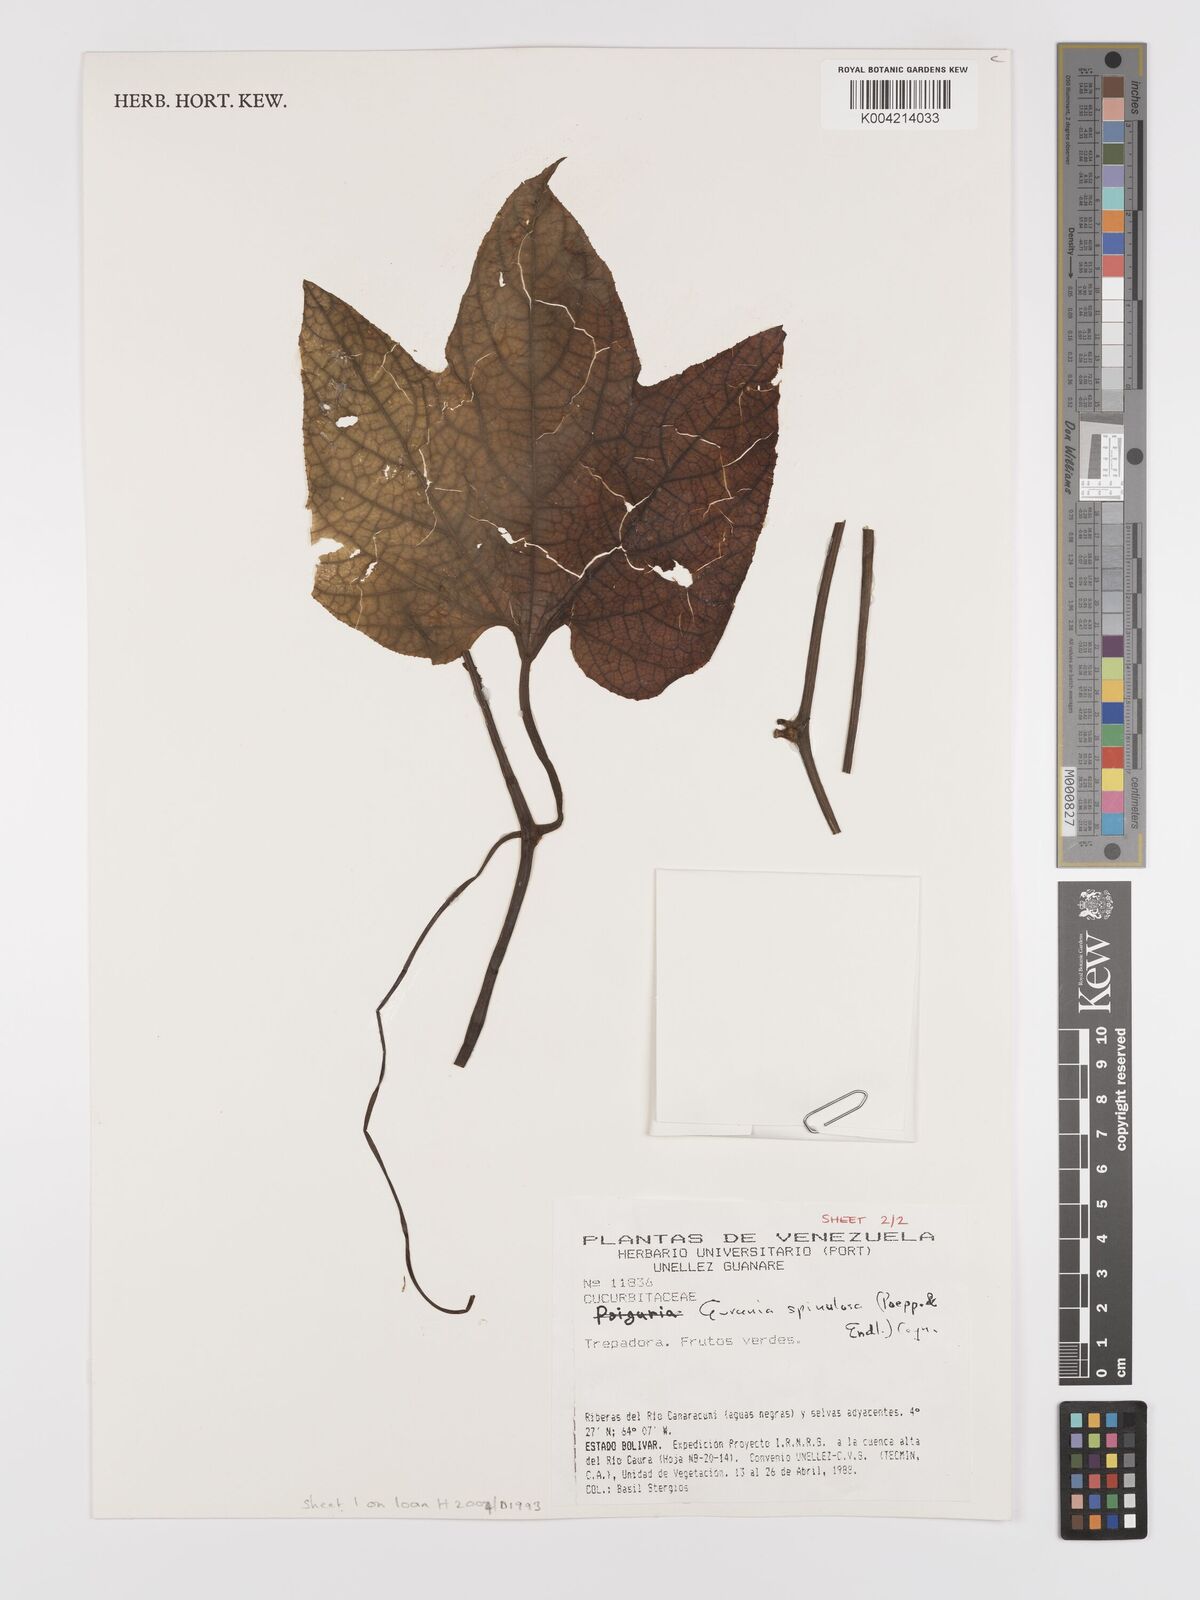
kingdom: Plantae
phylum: Tracheophyta
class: Magnoliopsida
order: Cucurbitales
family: Cucurbitaceae
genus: Gurania
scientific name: Gurania lobata
